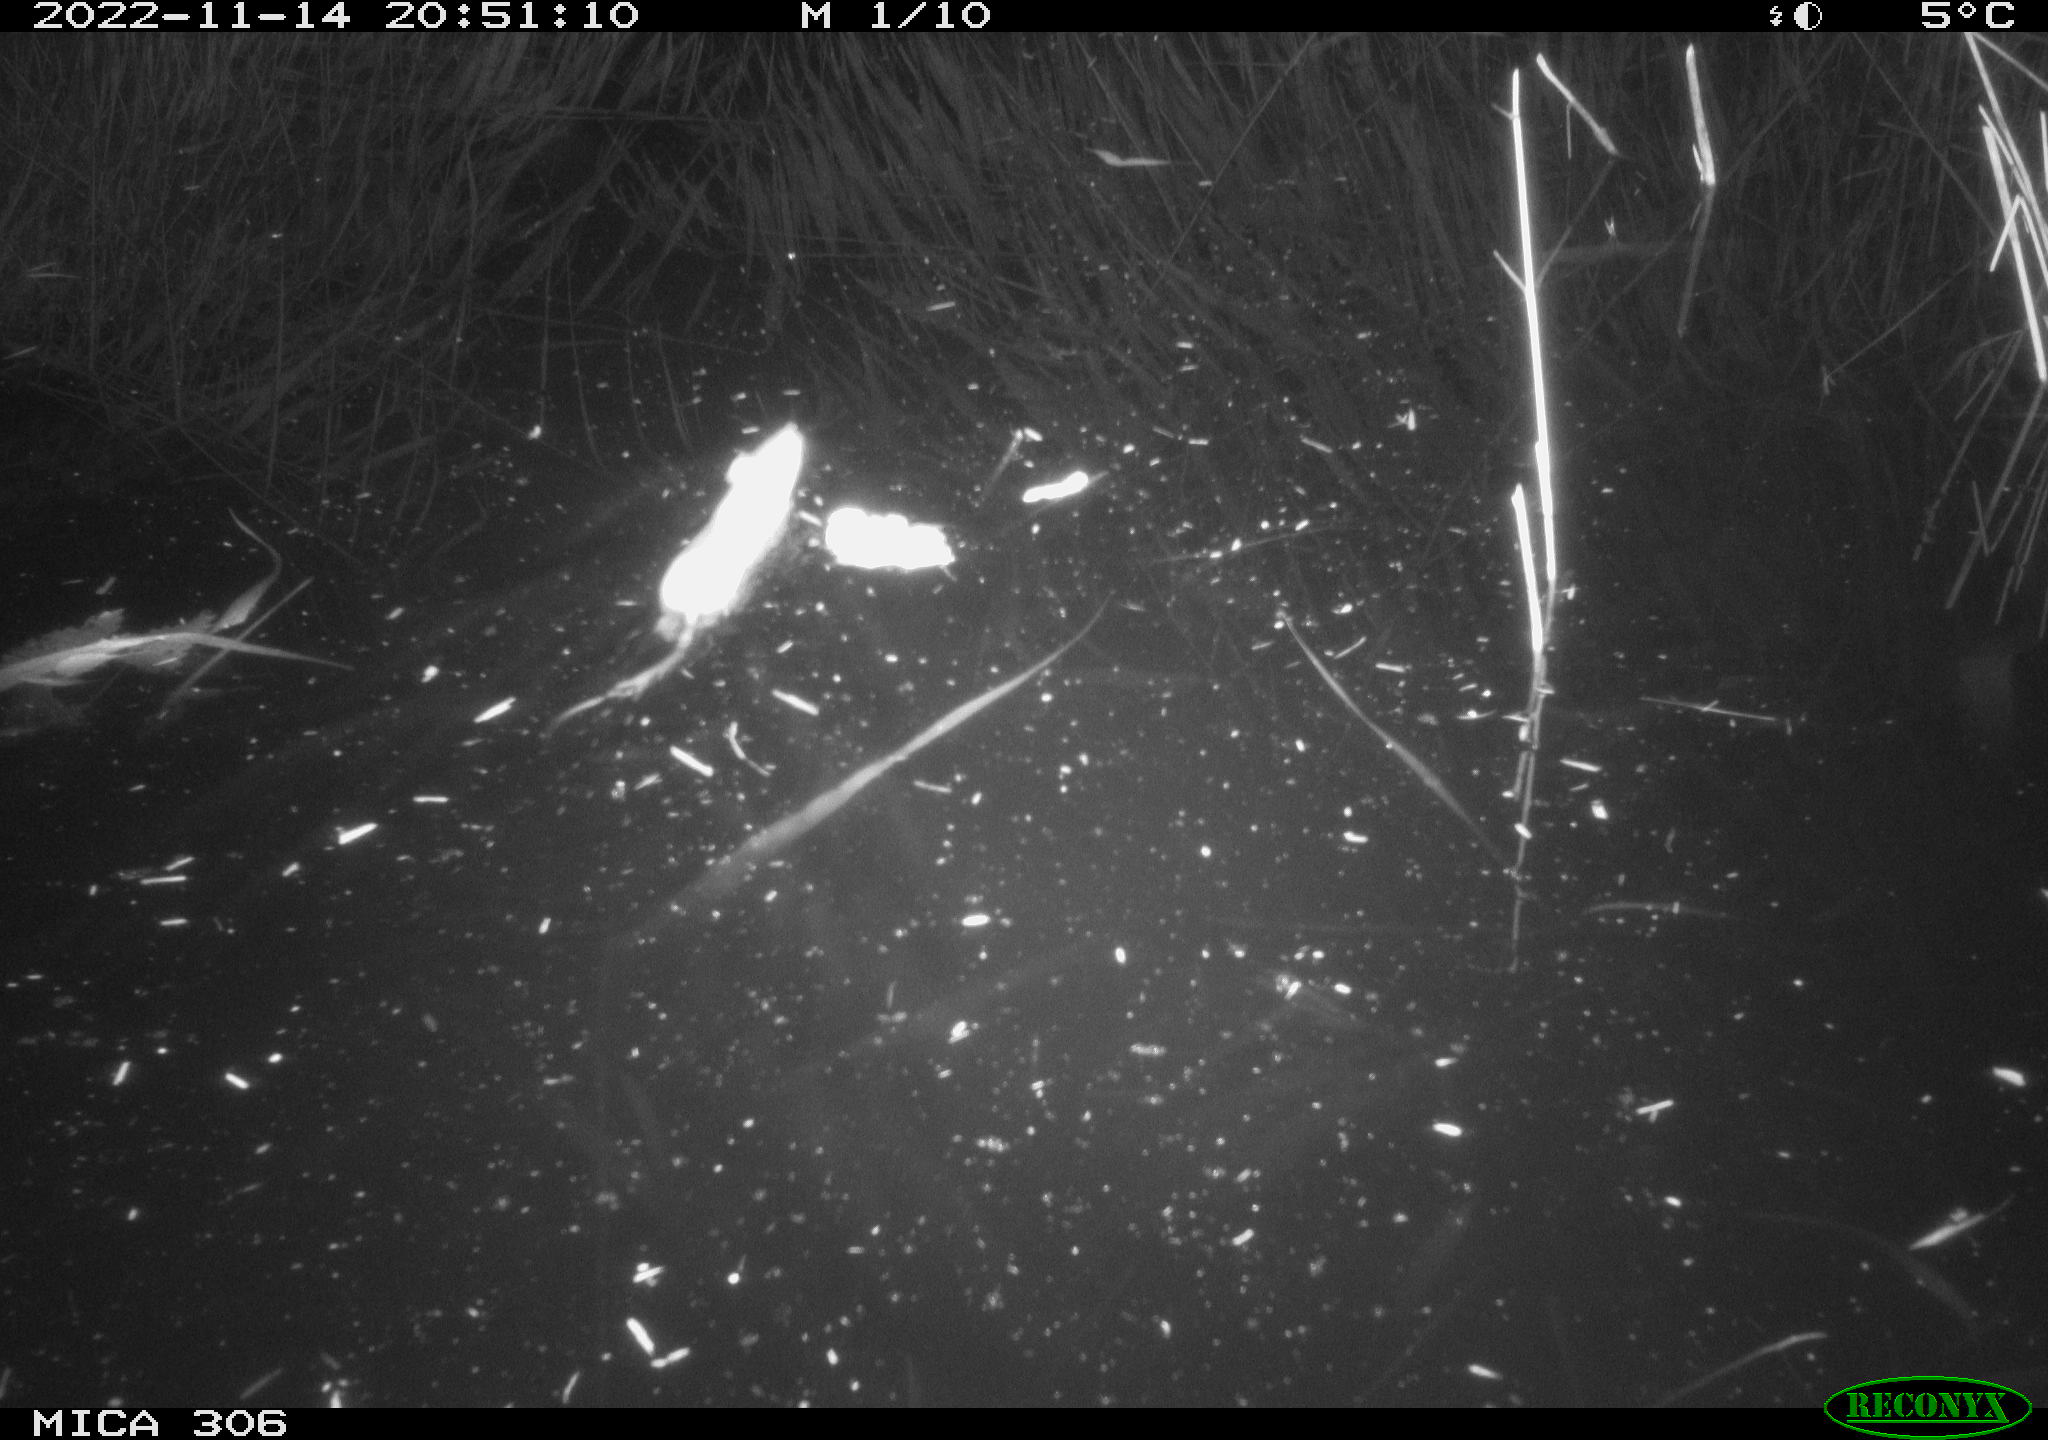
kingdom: Animalia
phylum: Chordata
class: Mammalia
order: Rodentia
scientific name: Rodentia
